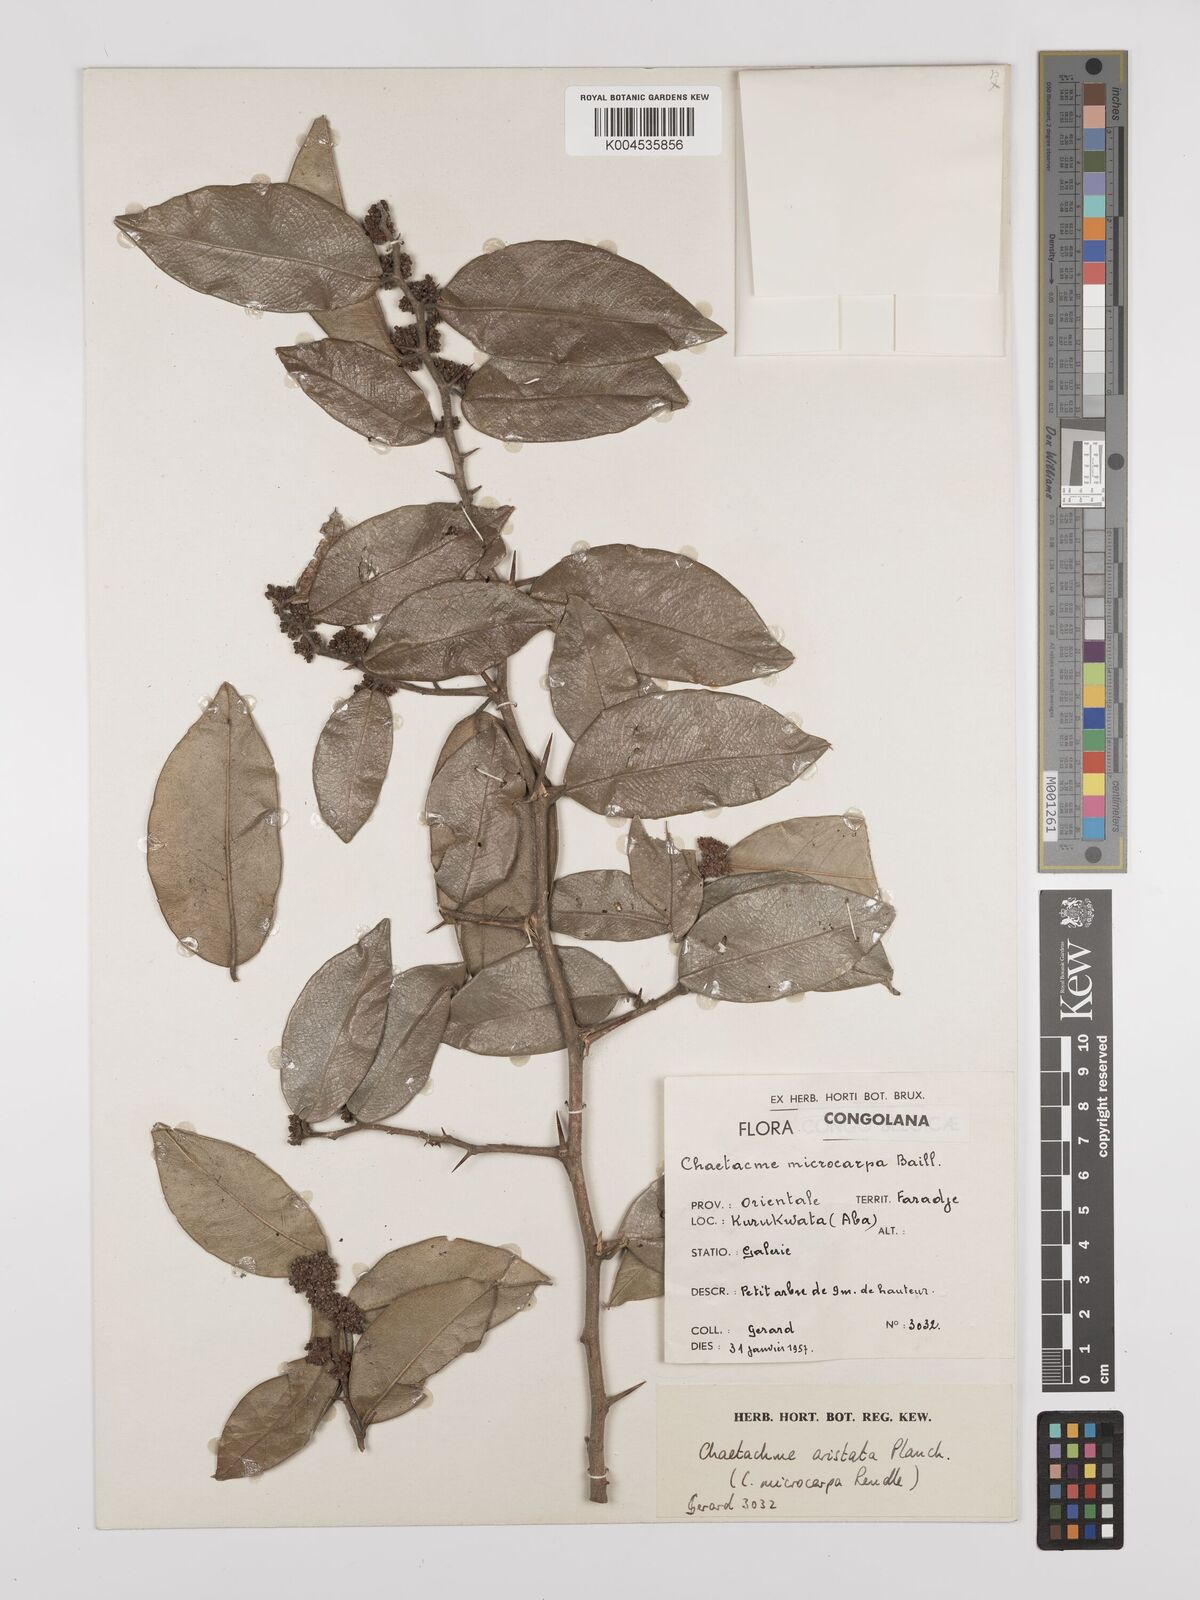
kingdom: Plantae
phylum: Tracheophyta
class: Magnoliopsida
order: Rosales
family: Cannabaceae
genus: Chaetachme
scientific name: Chaetachme aristata
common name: Thorny elm
